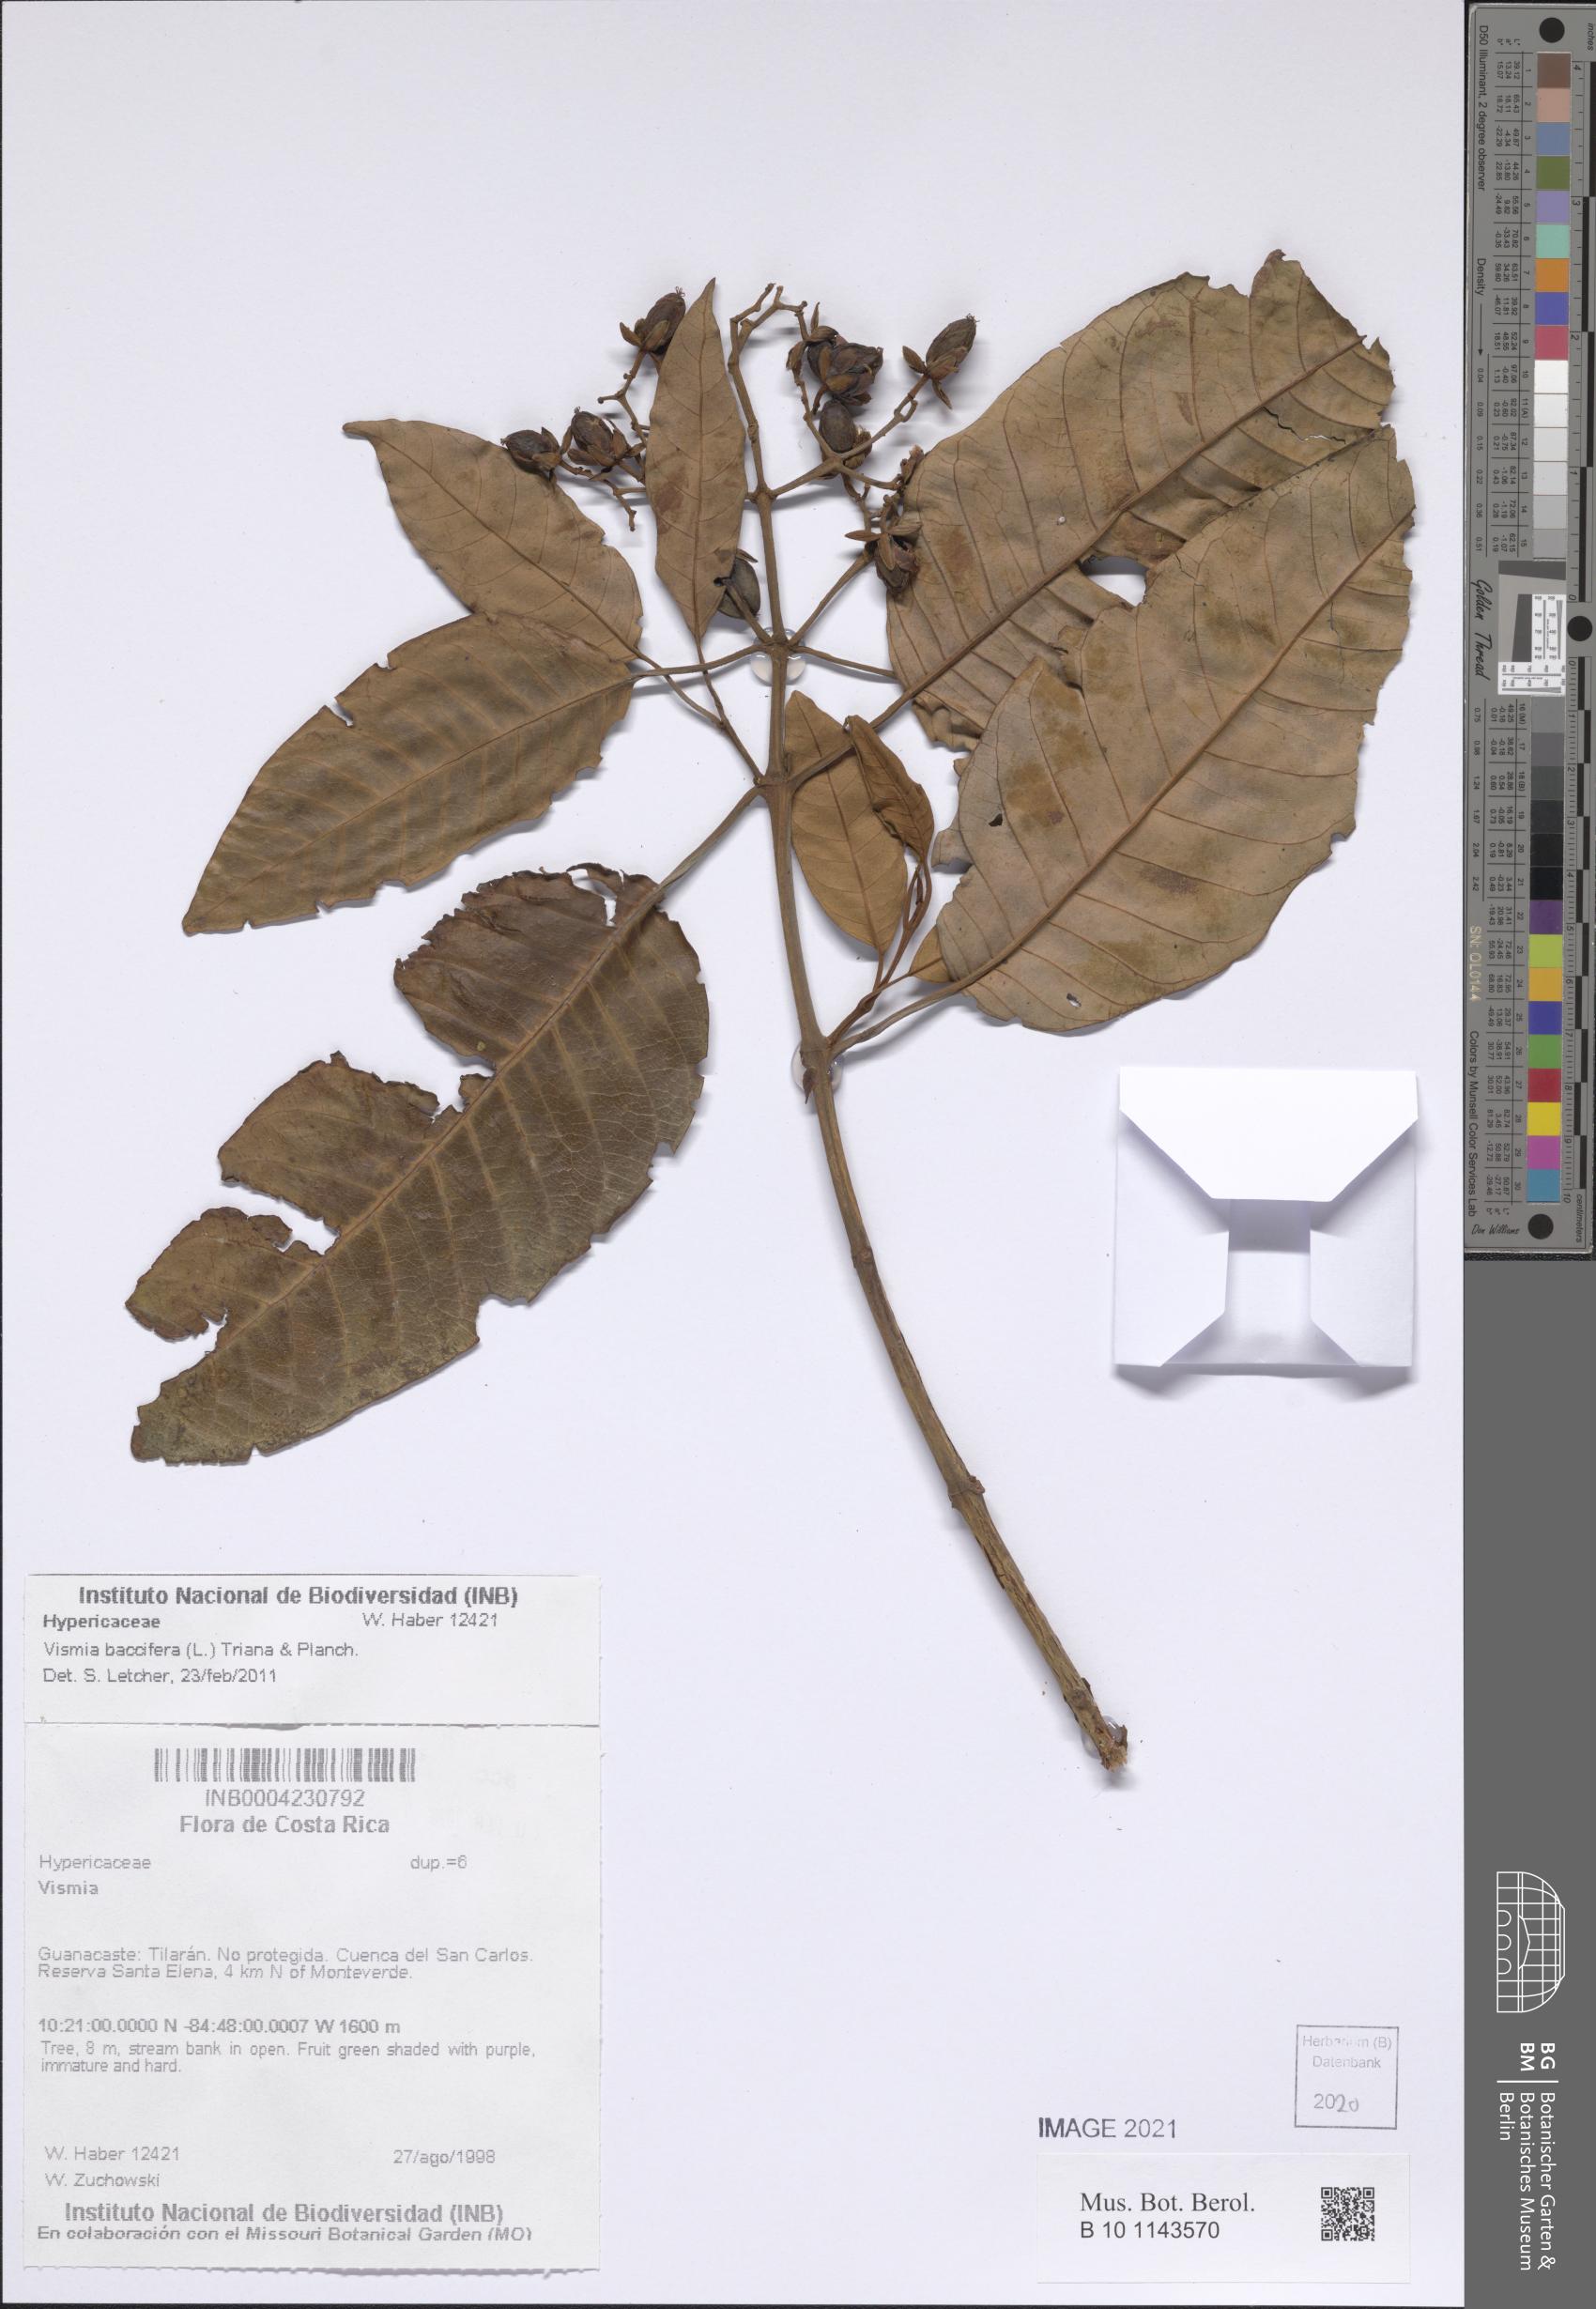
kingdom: Plantae
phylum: Tracheophyta
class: Magnoliopsida
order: Malpighiales
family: Hypericaceae
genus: Vismia
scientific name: Vismia baccifera
